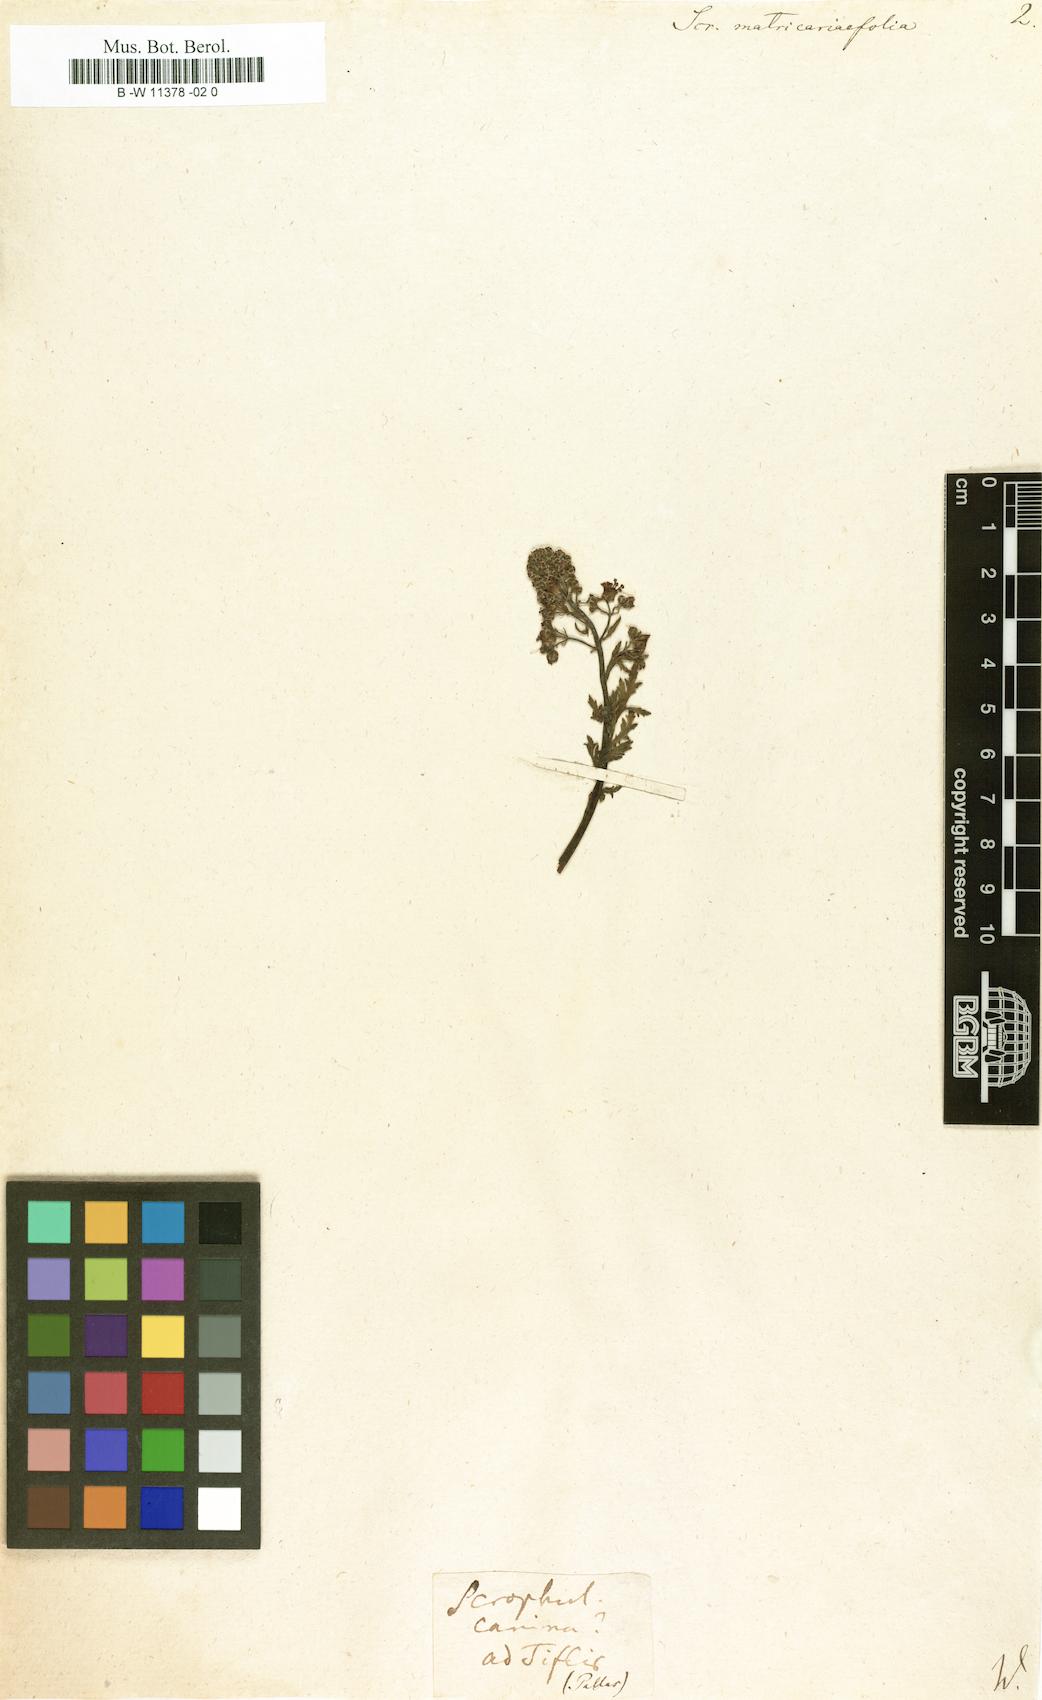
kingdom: Plantae
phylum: Tracheophyta
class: Magnoliopsida
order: Lamiales
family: Scrophulariaceae
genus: Scrophularia
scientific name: Scrophularia
